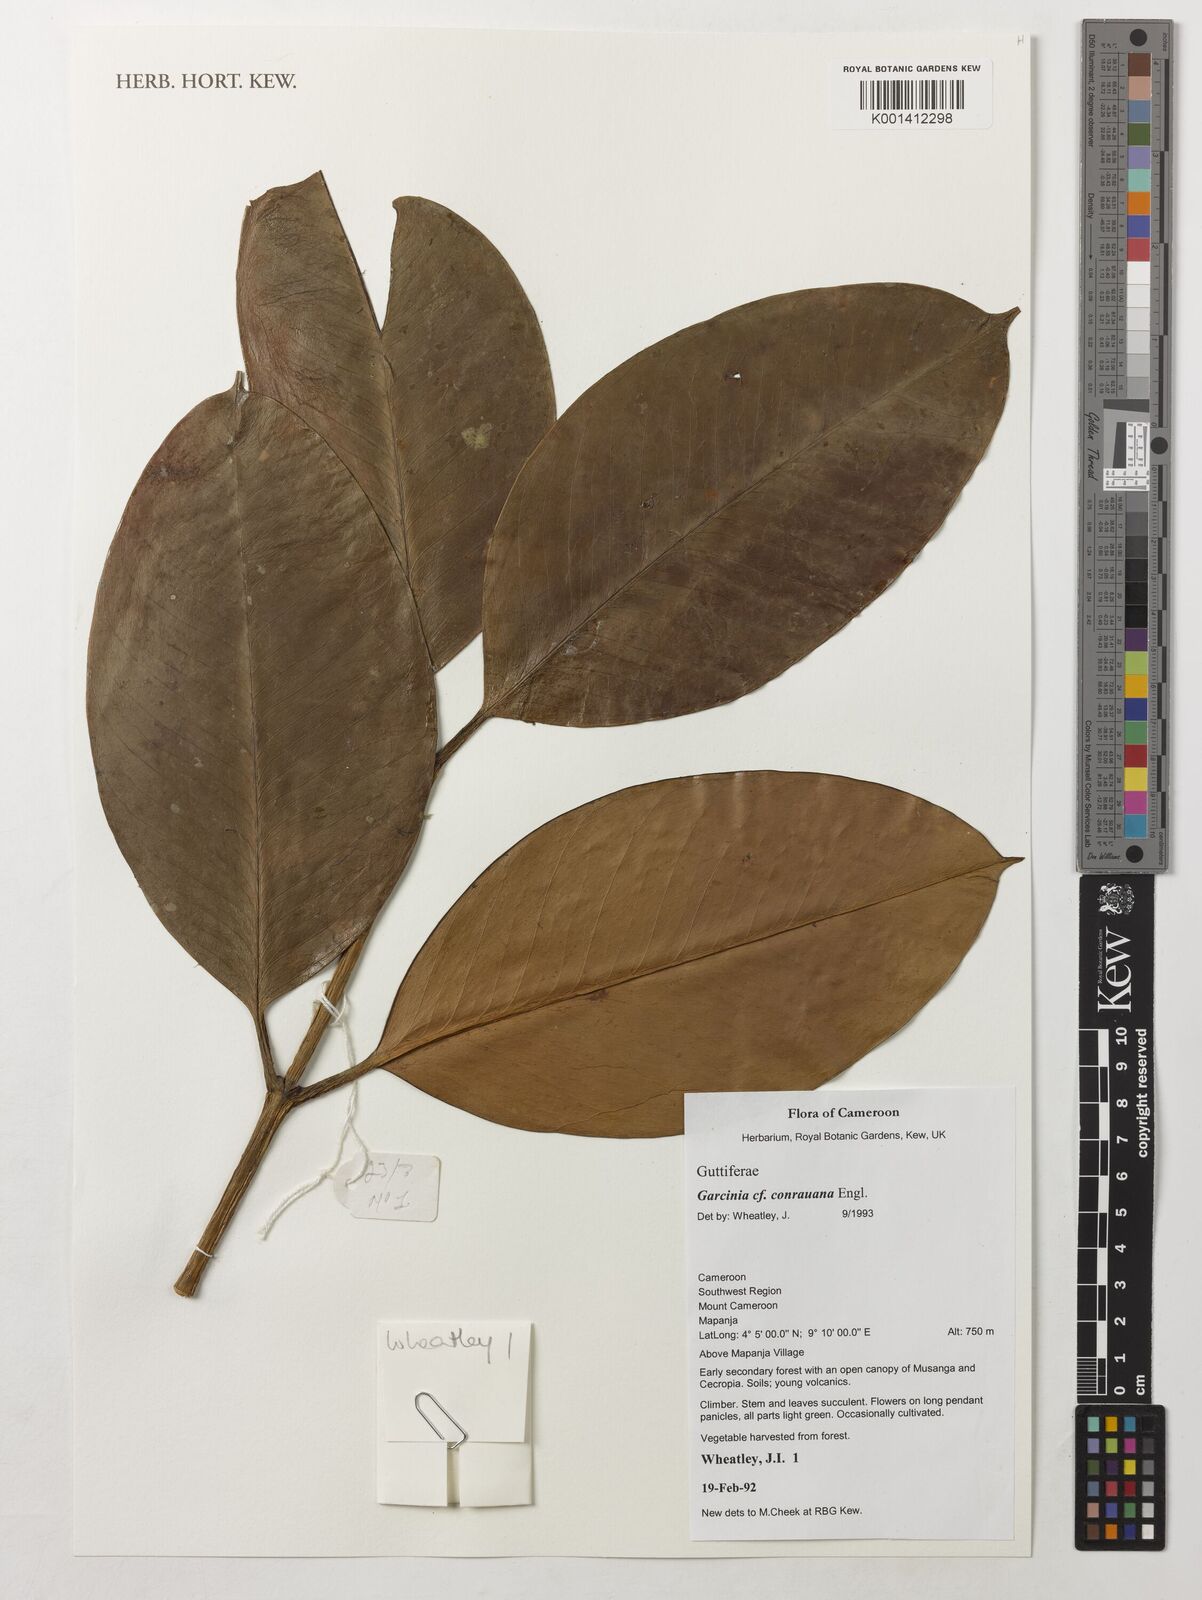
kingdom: Plantae
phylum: Tracheophyta
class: Magnoliopsida
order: Malpighiales
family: Clusiaceae
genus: Garcinia
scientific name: Garcinia conrauana
